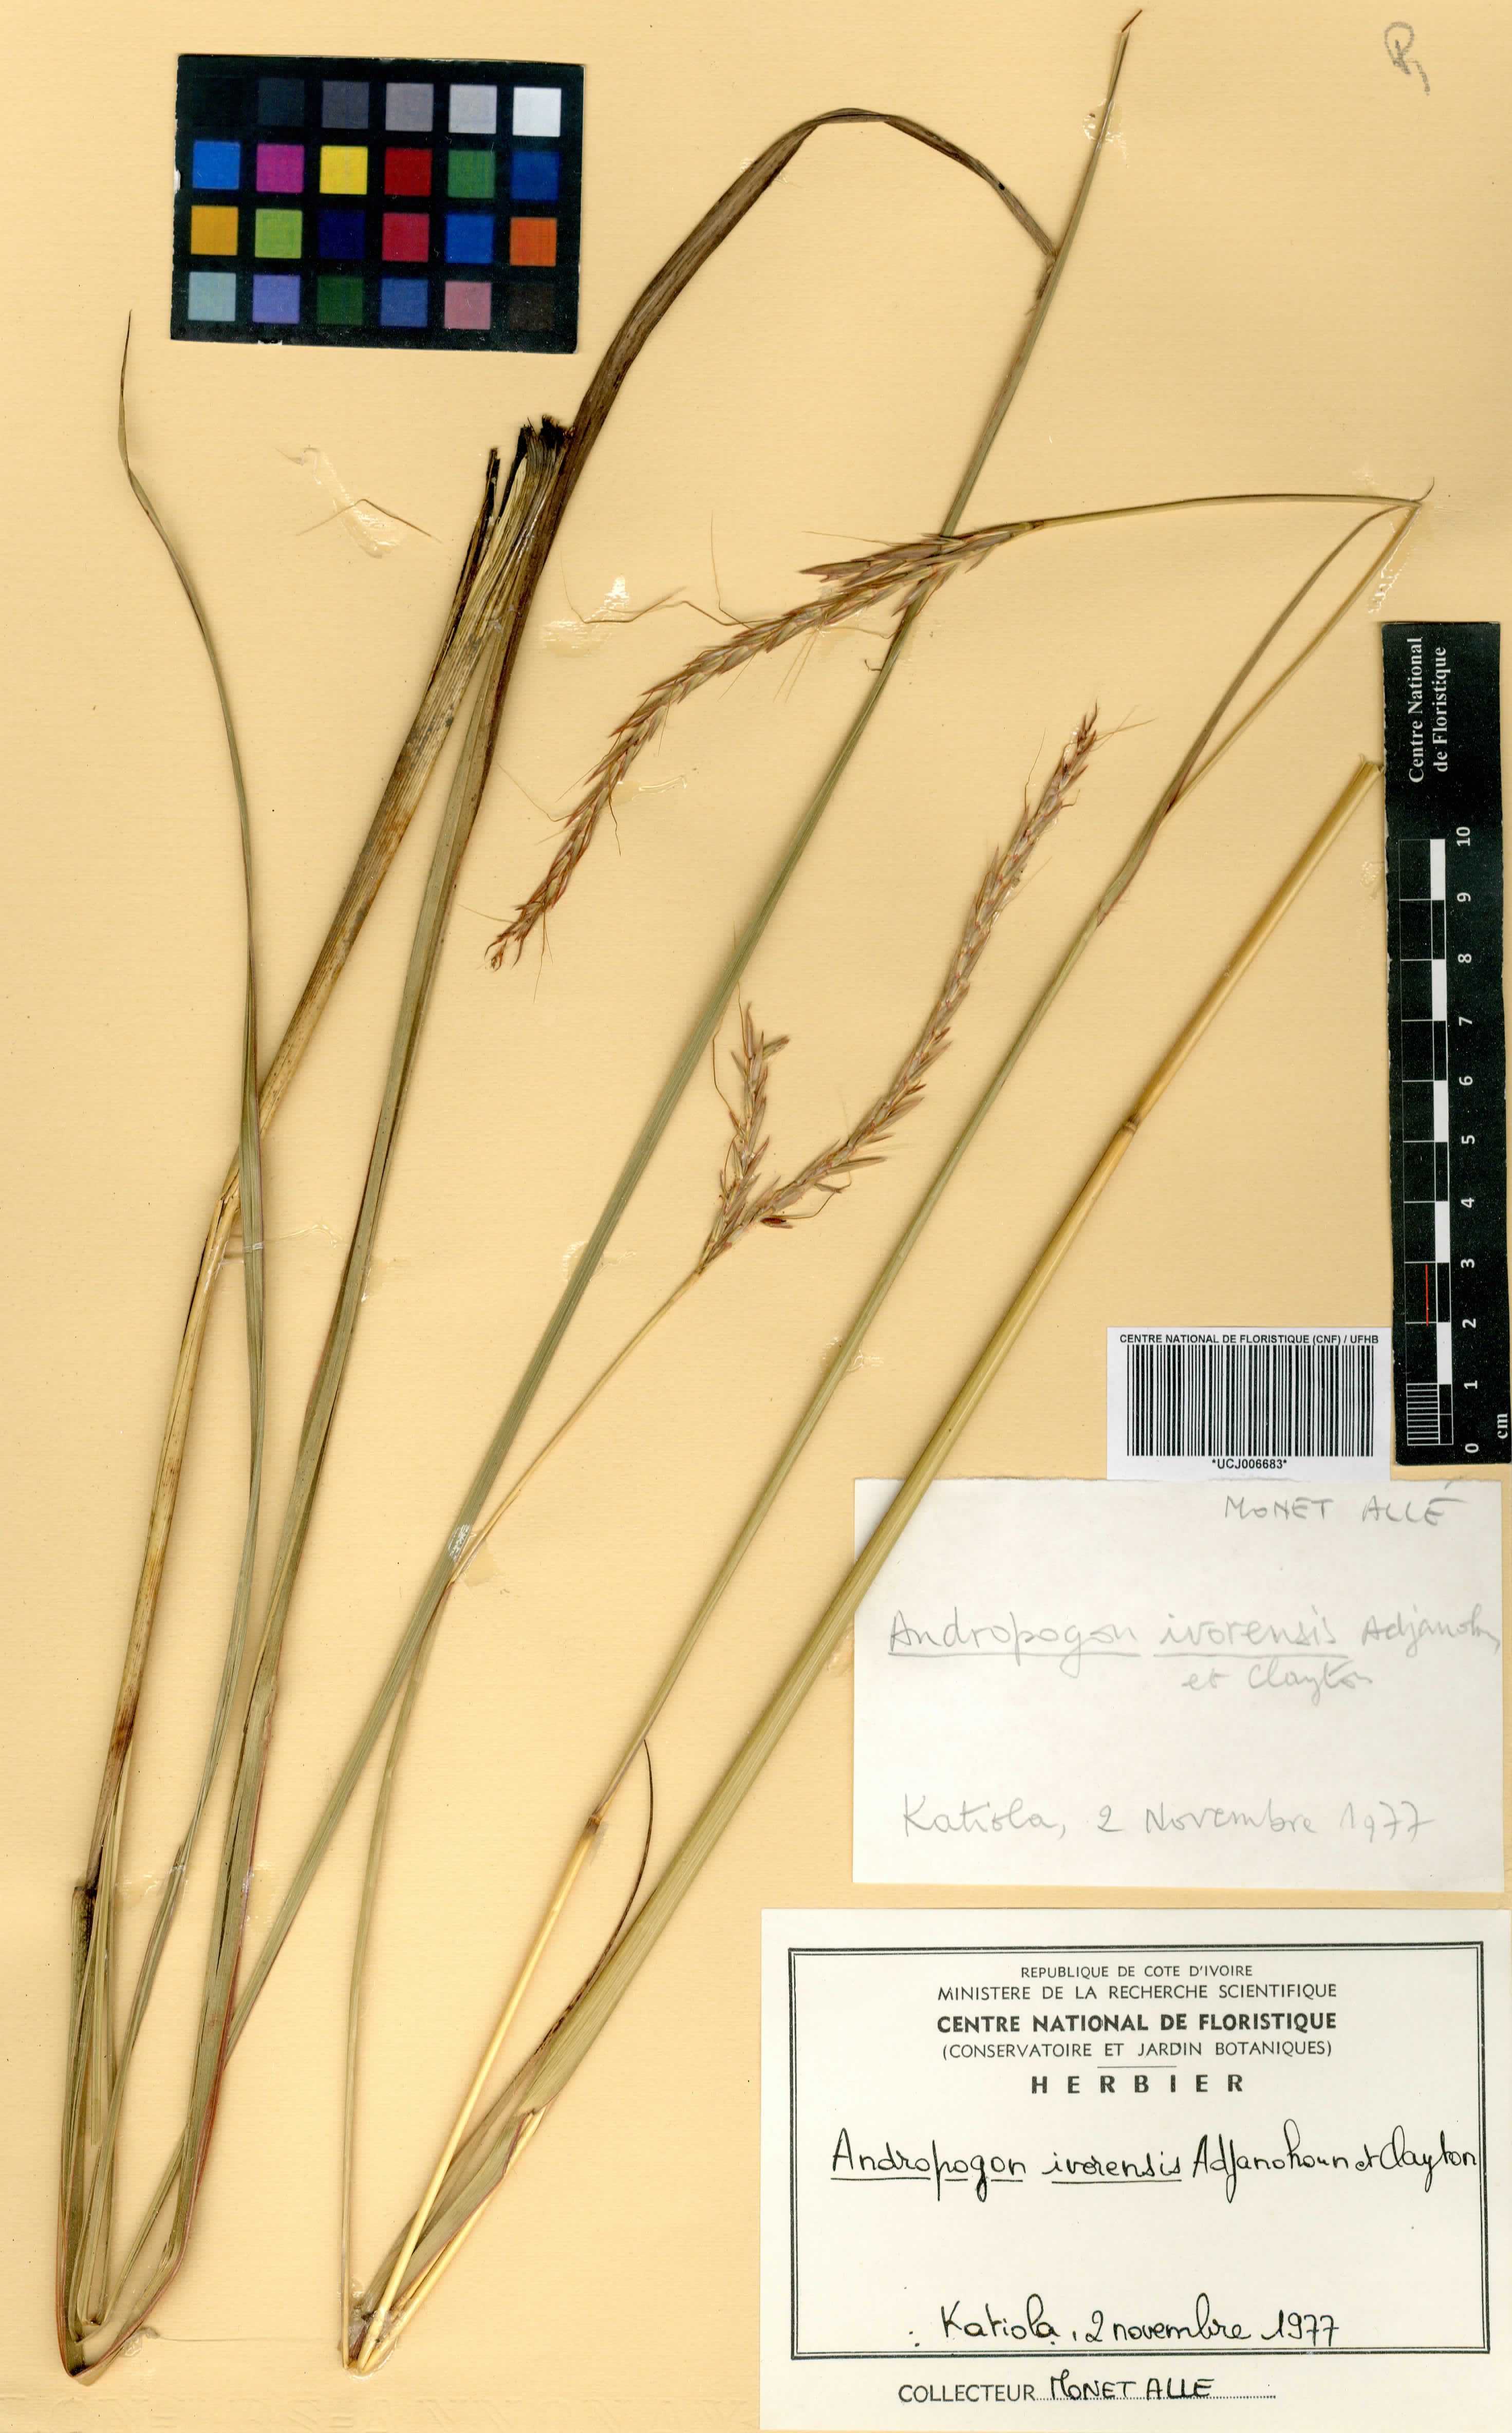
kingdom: Plantae
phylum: Tracheophyta
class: Liliopsida
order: Poales
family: Poaceae
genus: Andropogon
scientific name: Andropogon ivorensis
